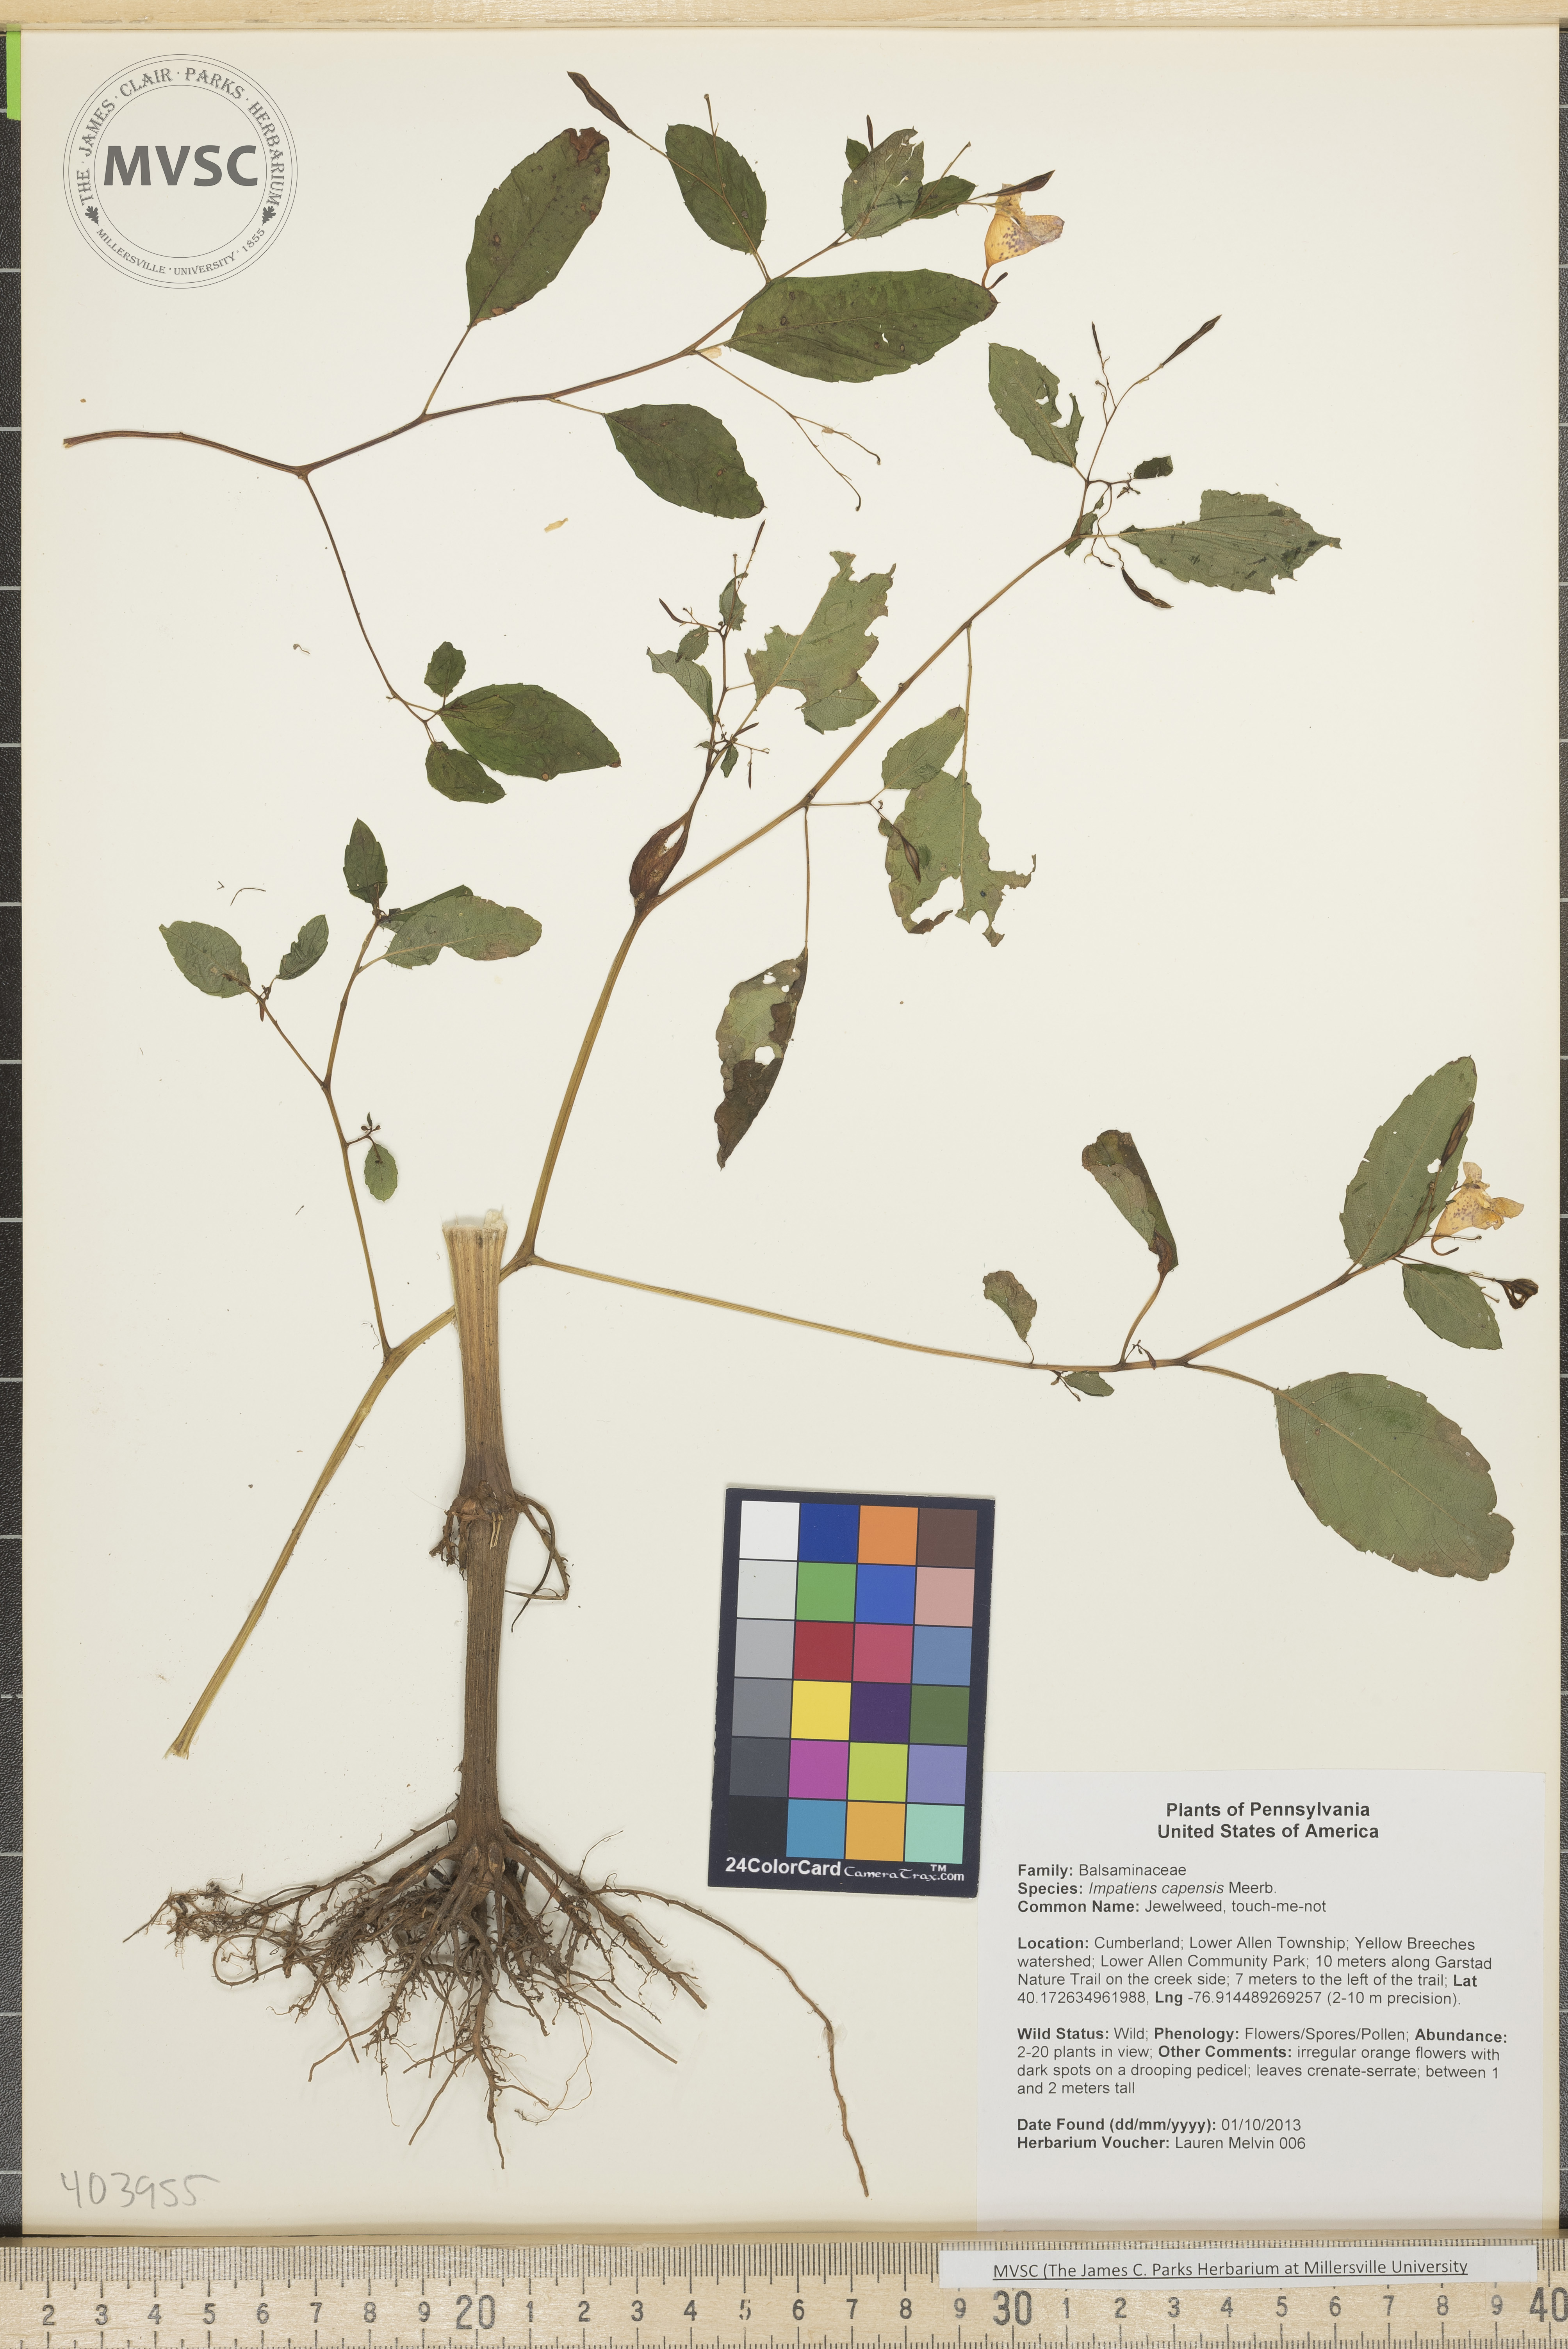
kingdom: Plantae
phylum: Tracheophyta
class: Magnoliopsida
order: Ericales
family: Balsaminaceae
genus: Impatiens
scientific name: Impatiens capensis
